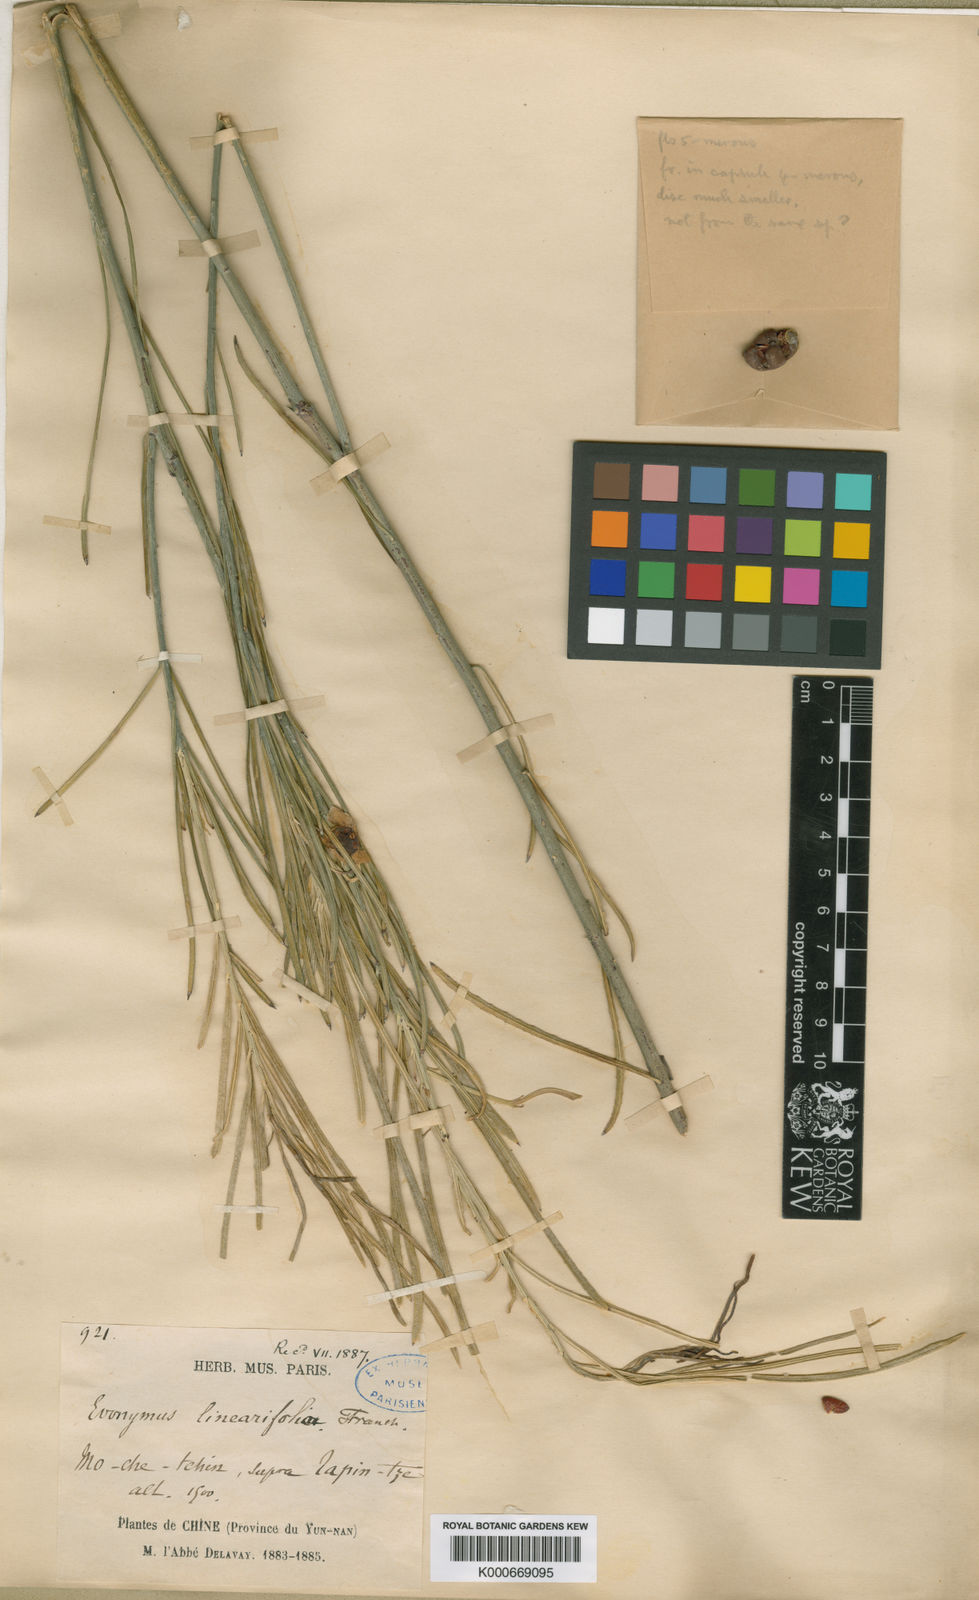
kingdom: Plantae
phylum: Tracheophyta
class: Magnoliopsida
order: Celastrales
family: Celastraceae
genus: Euonymus
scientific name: Euonymus yunnanensis
